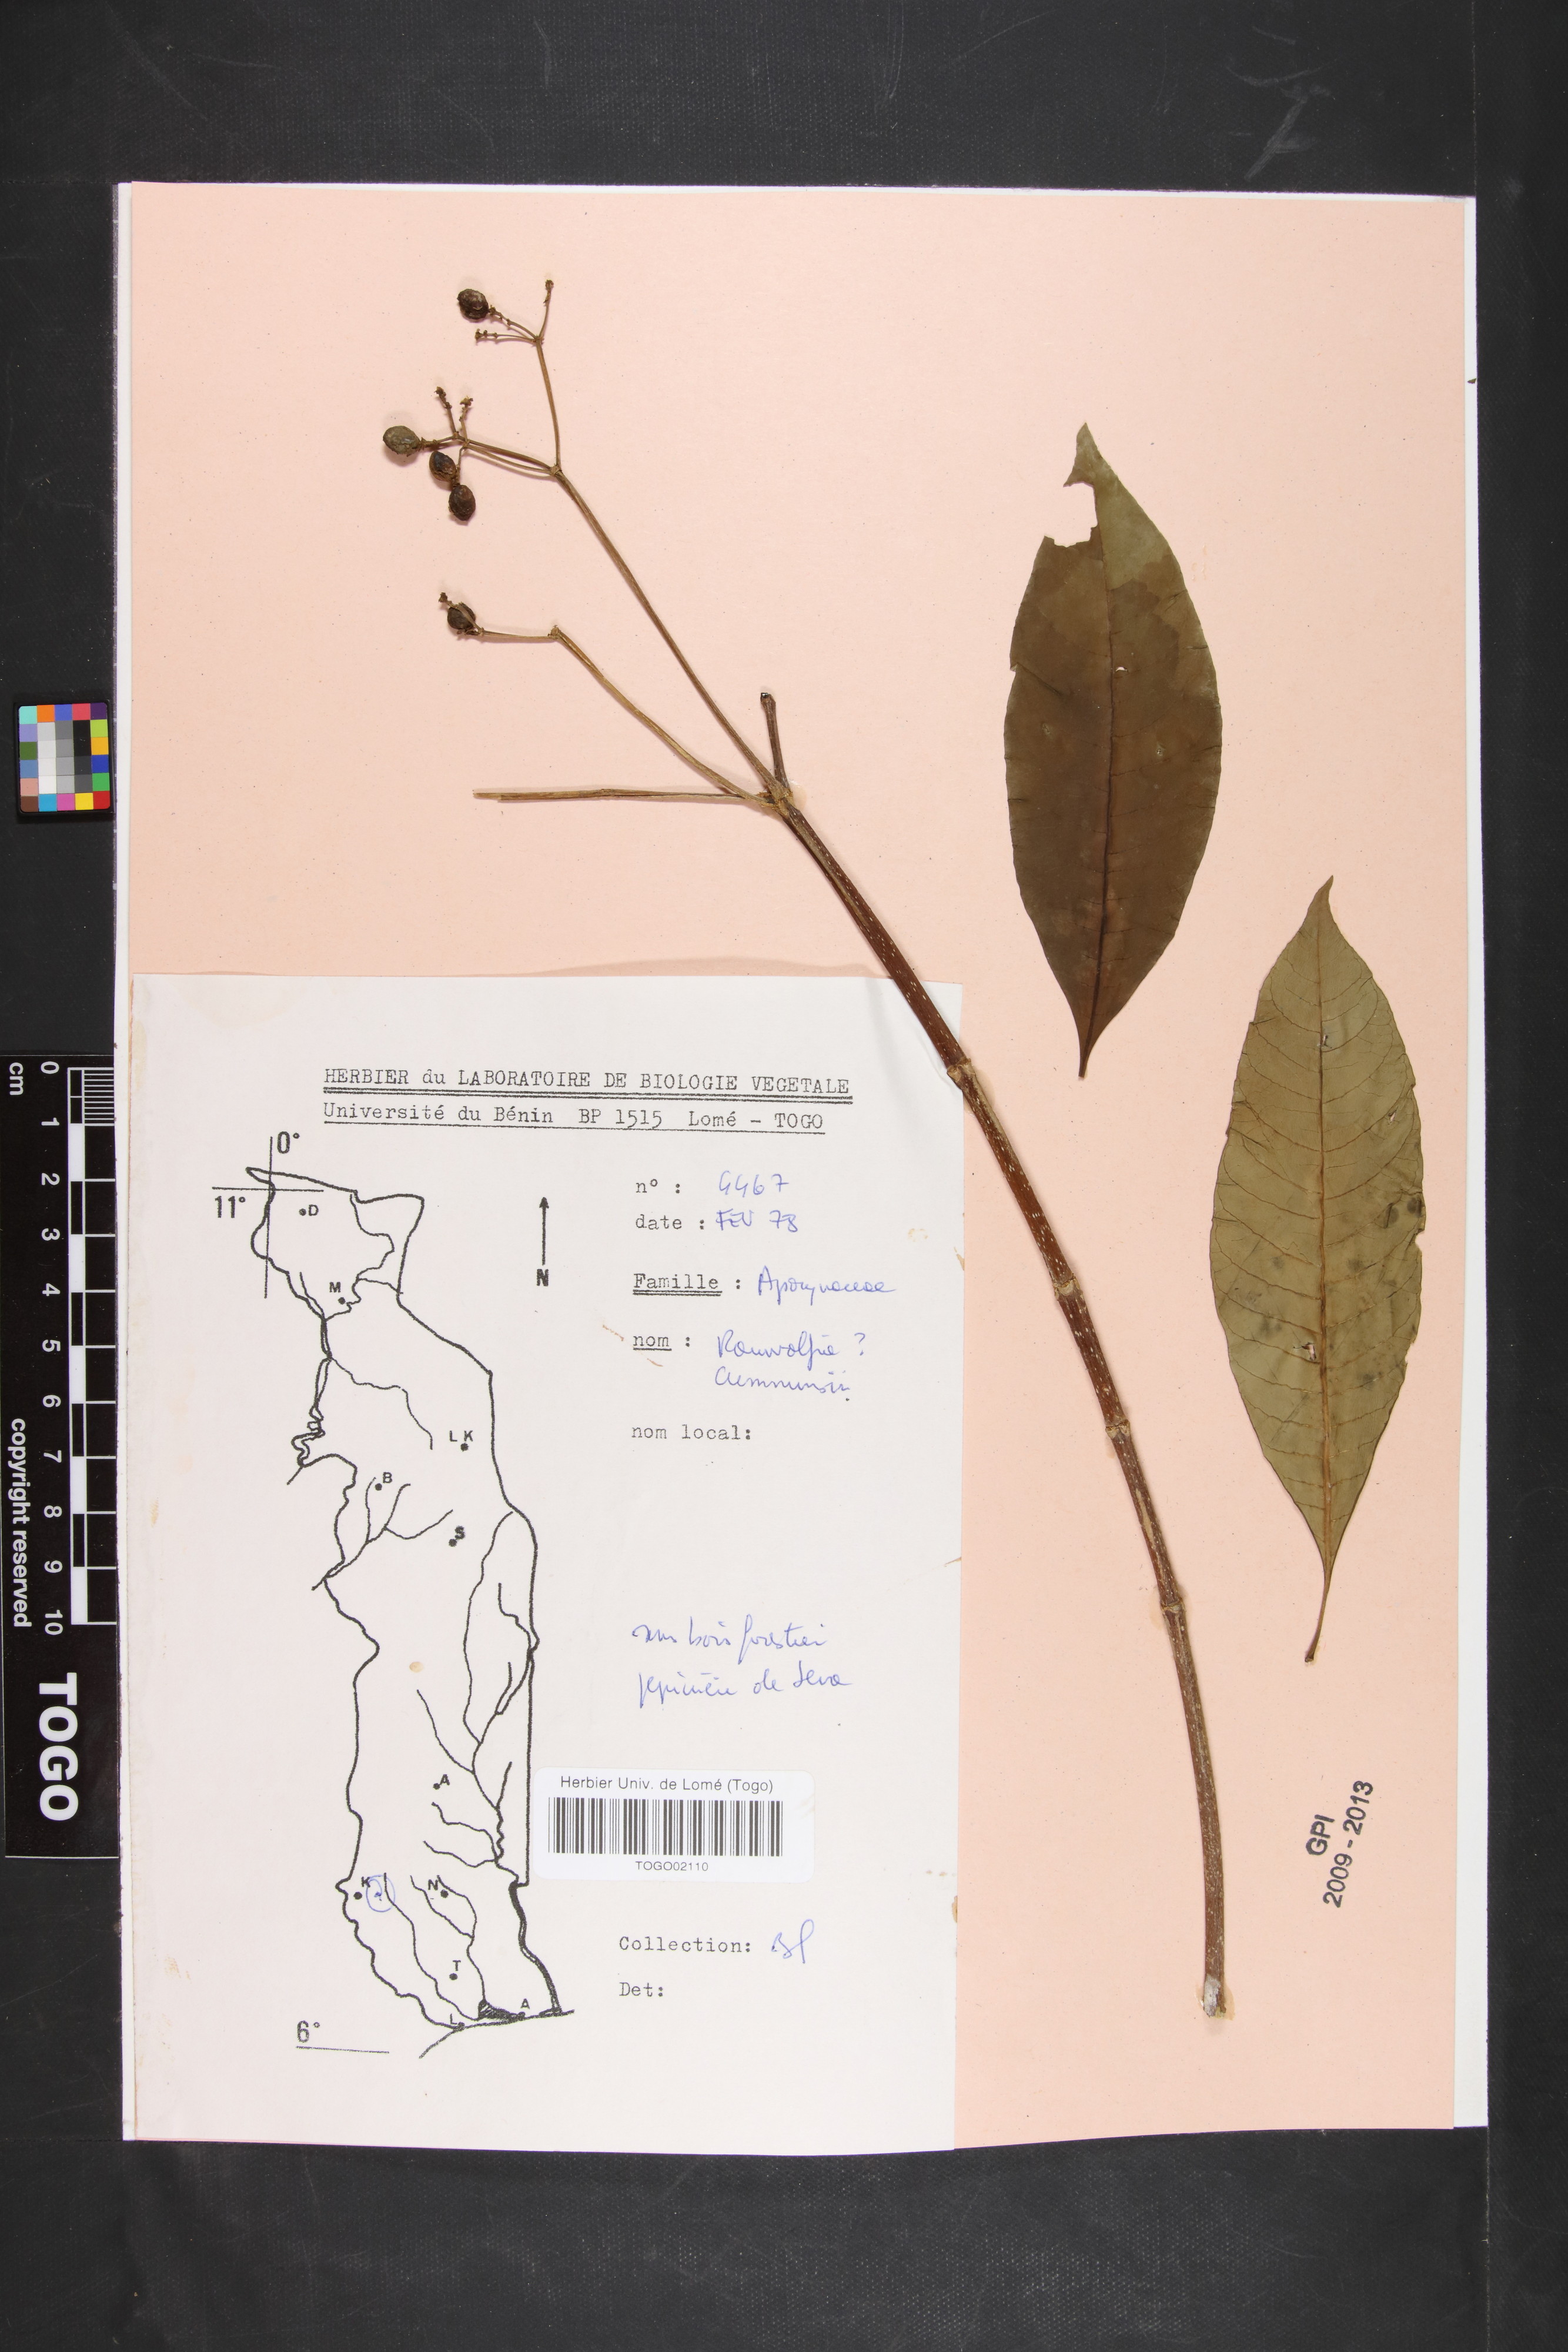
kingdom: Plantae
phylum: Tracheophyta
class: Magnoliopsida
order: Gentianales
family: Apocynaceae
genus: Rauvolfia
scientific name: Rauvolfia mannii
